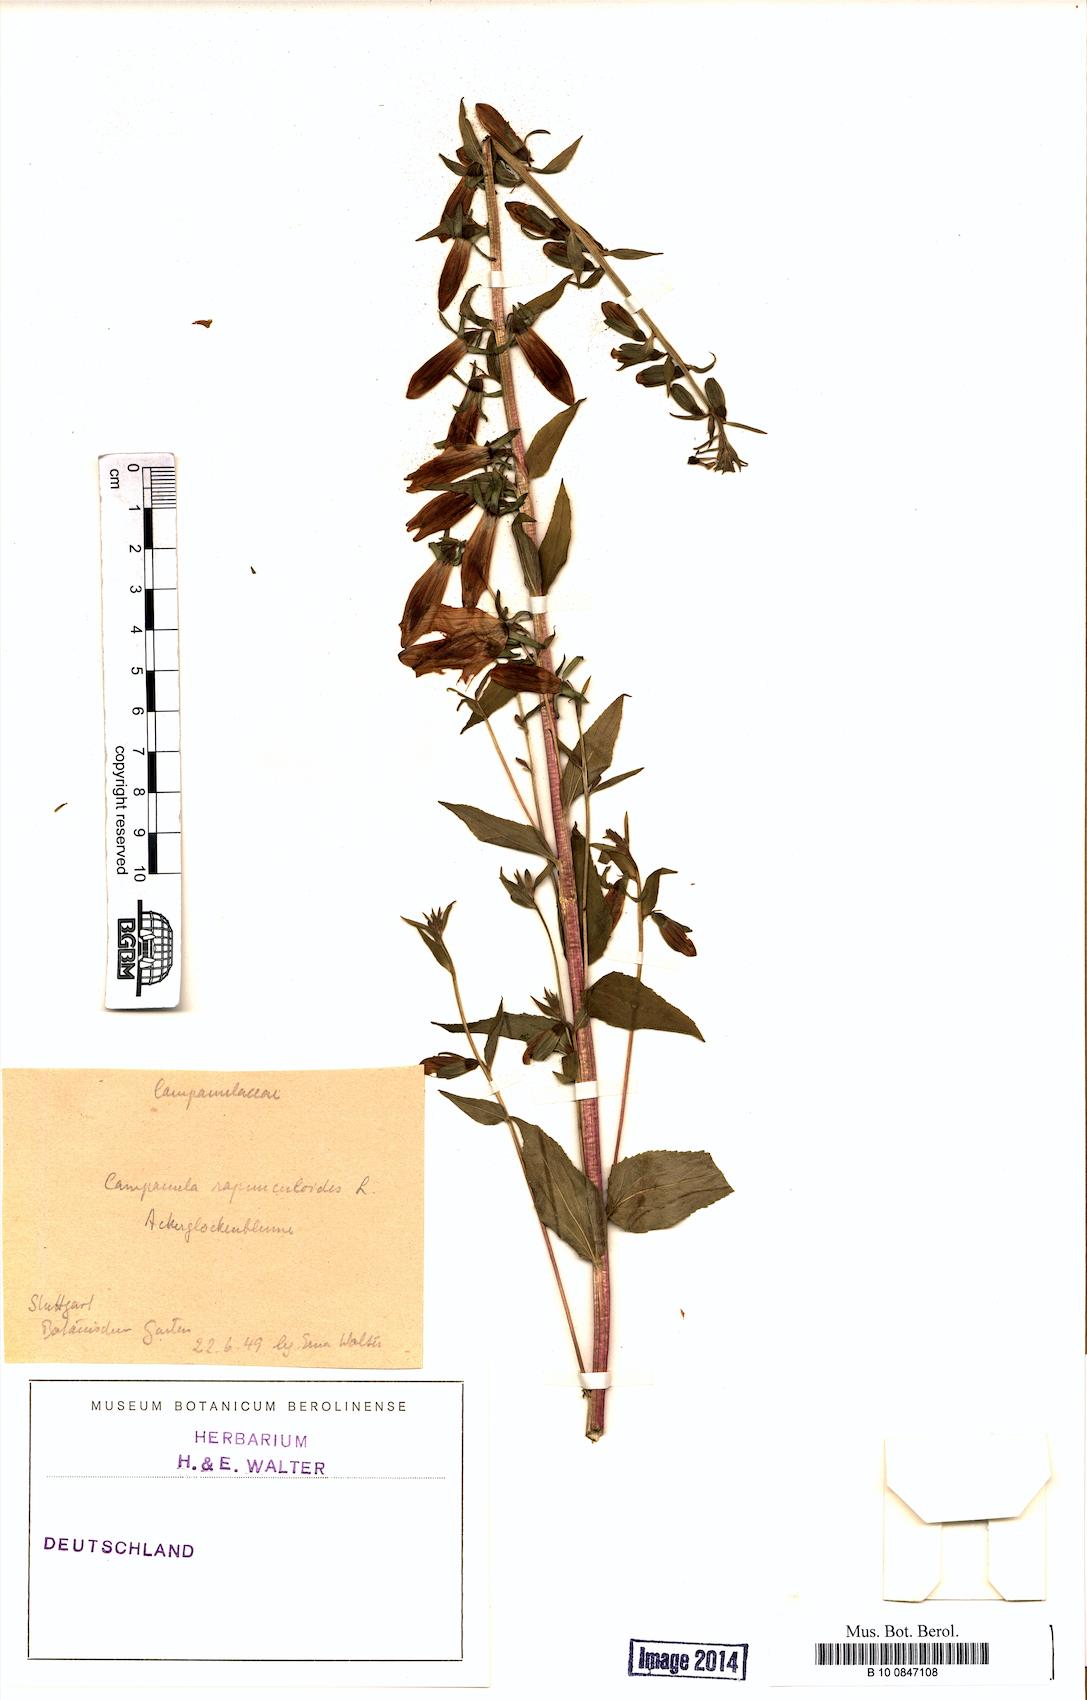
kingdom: Plantae
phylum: Tracheophyta
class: Magnoliopsida
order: Asterales
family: Campanulaceae
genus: Campanula
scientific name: Campanula rapunculoides
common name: Creeping bellflower
